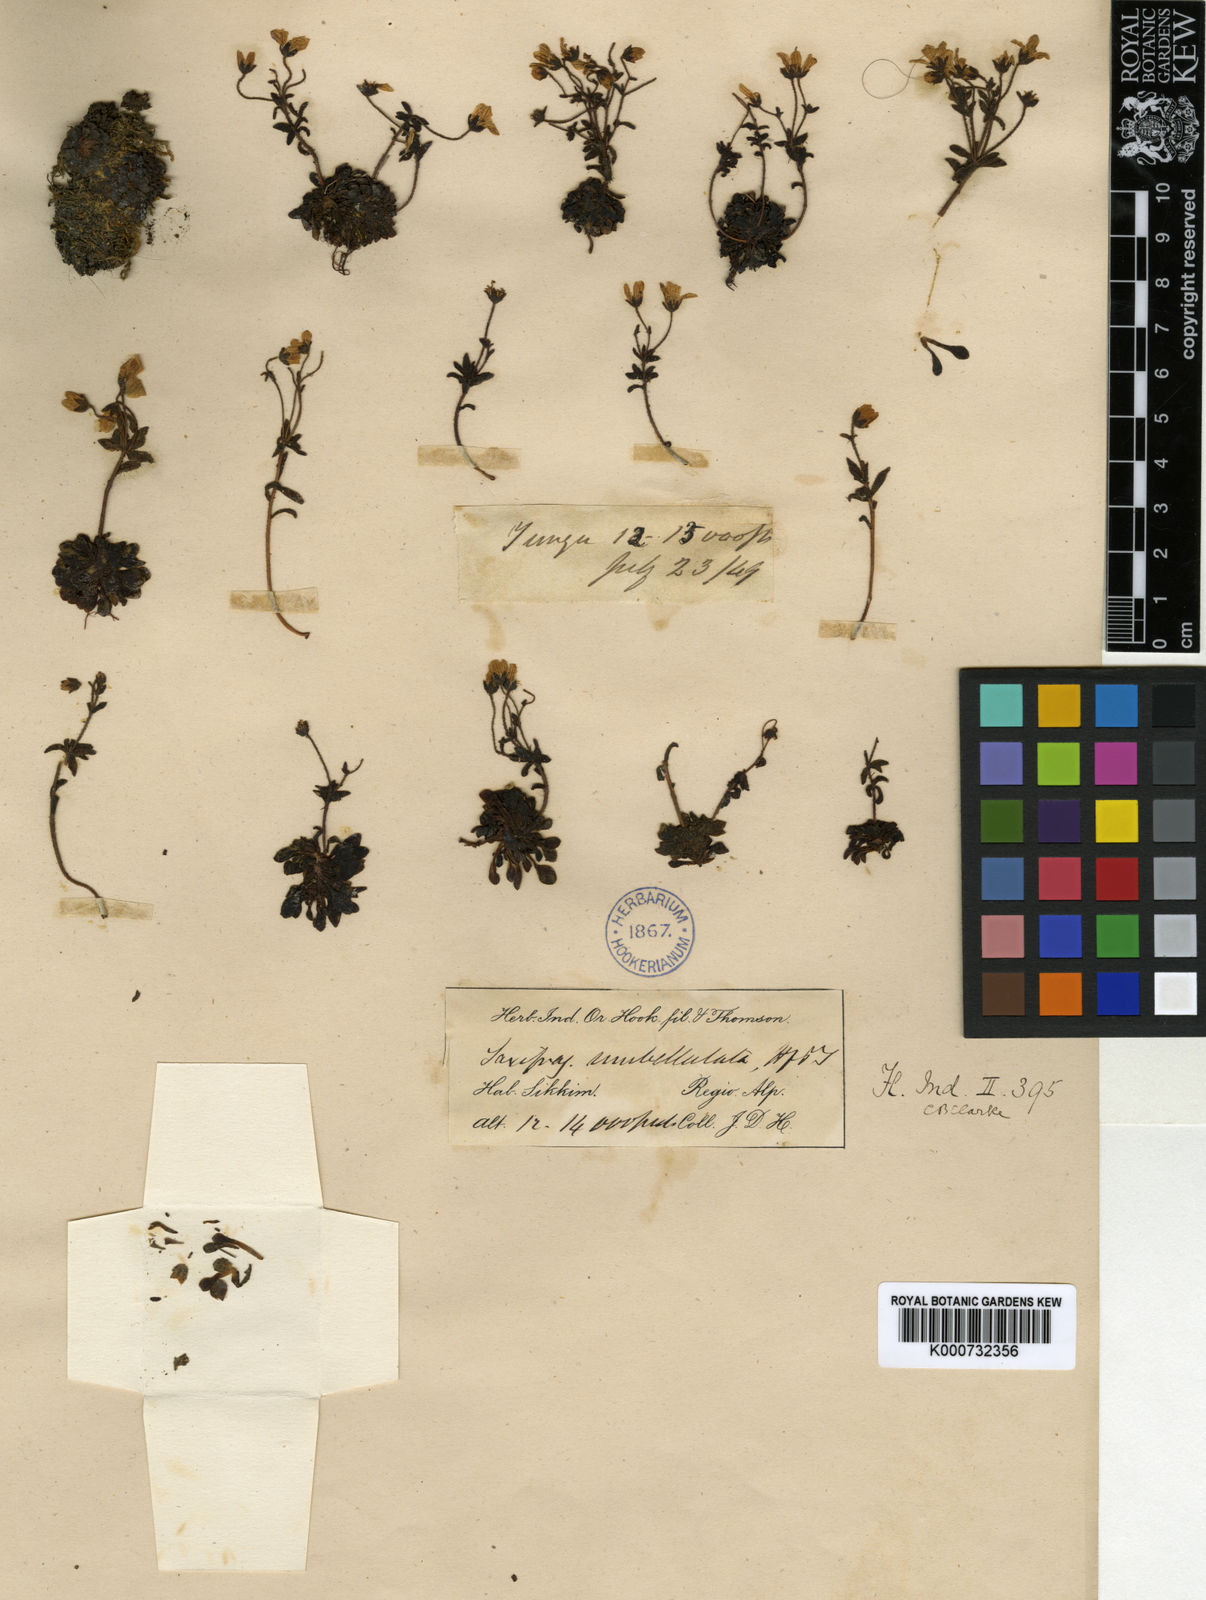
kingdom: Plantae
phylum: Tracheophyta
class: Magnoliopsida
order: Saxifragales
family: Saxifragaceae
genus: Saxifraga
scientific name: Saxifraga umbellulata
